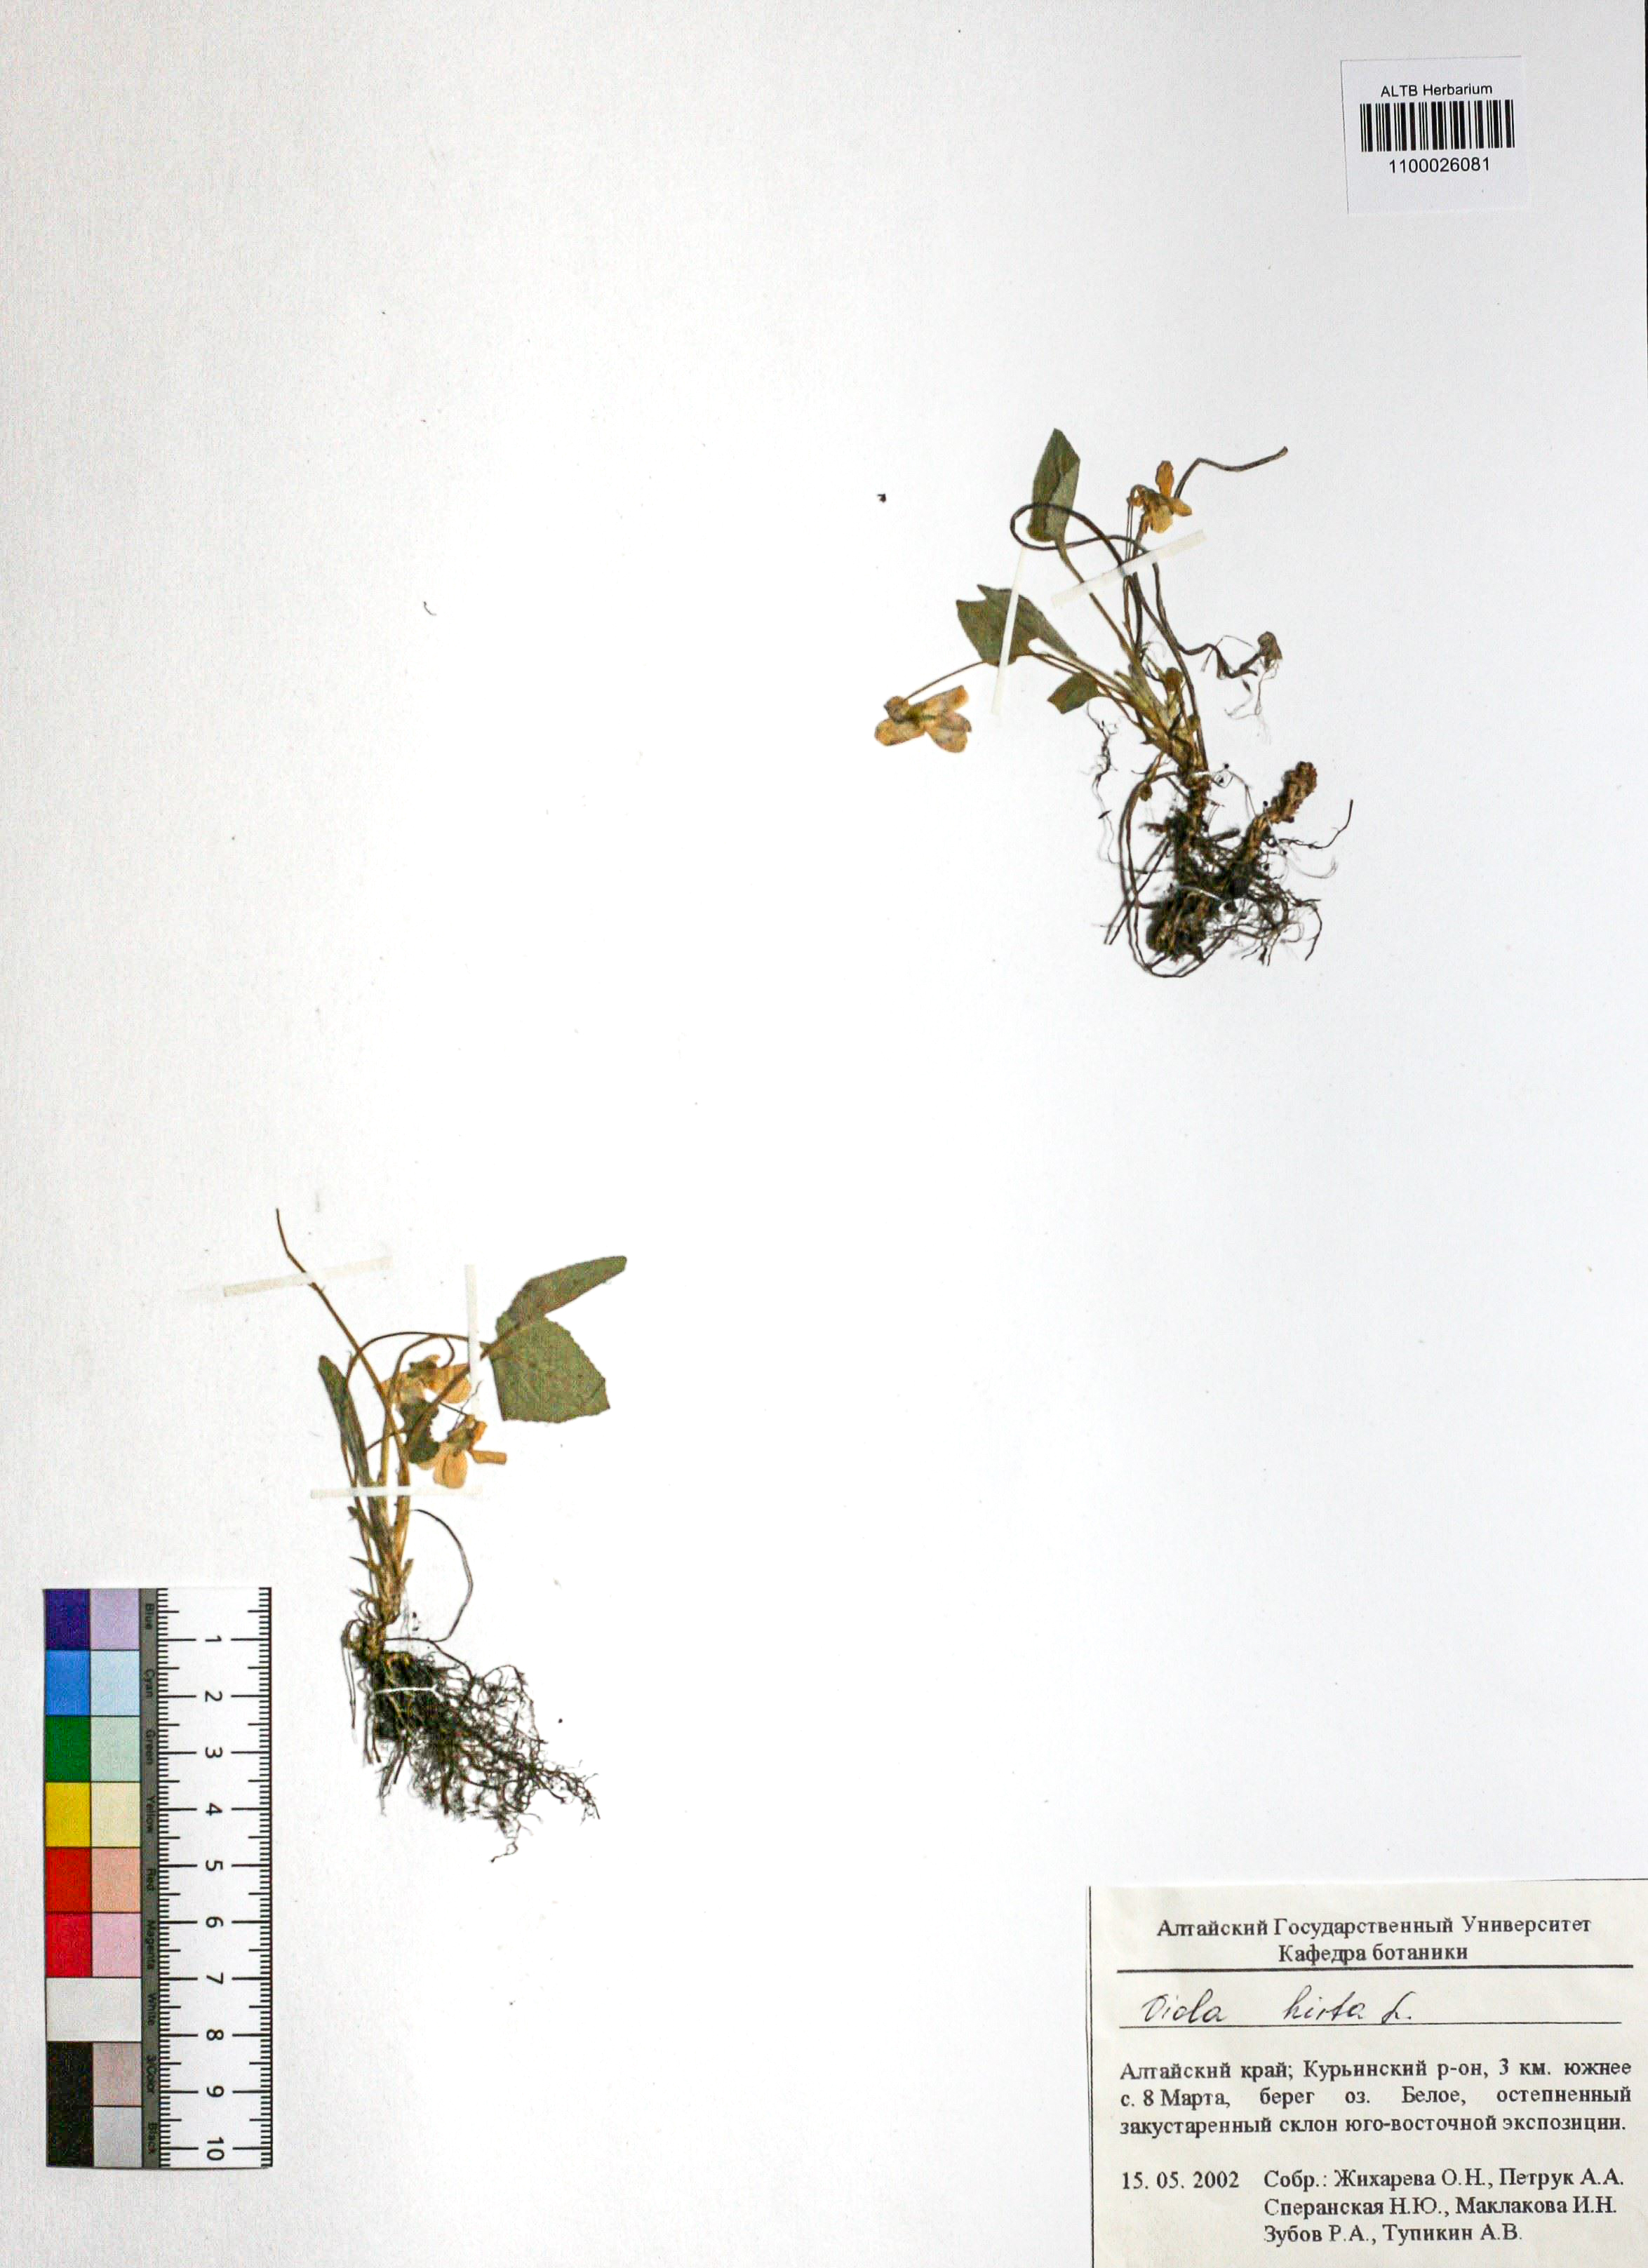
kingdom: Plantae
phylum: Tracheophyta
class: Magnoliopsida
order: Malpighiales
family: Violaceae
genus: Viola
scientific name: Viola hirta
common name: Hairy violet
